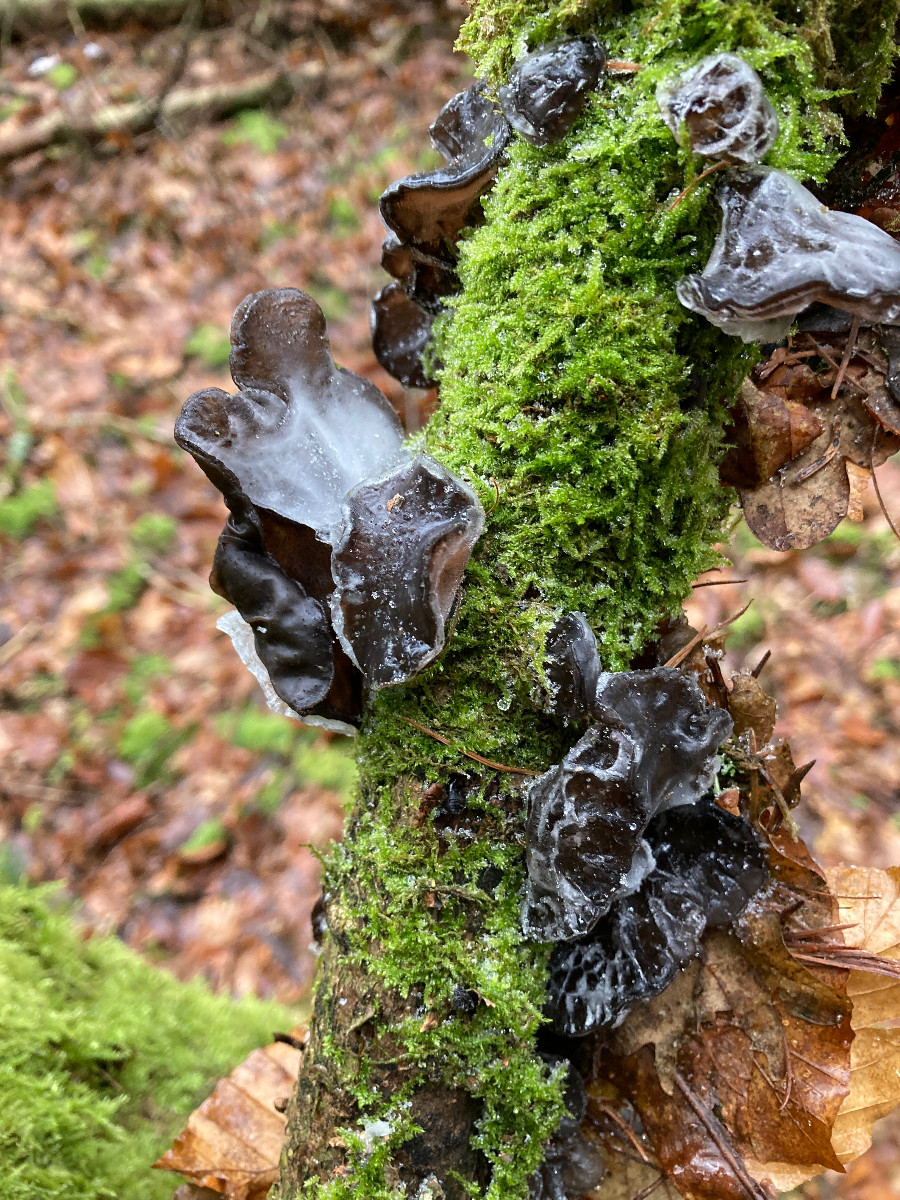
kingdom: Fungi
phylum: Basidiomycota
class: Agaricomycetes
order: Auriculariales
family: Auriculariaceae
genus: Auricularia
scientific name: Auricularia auricula-judae
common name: almindelig judasøre
